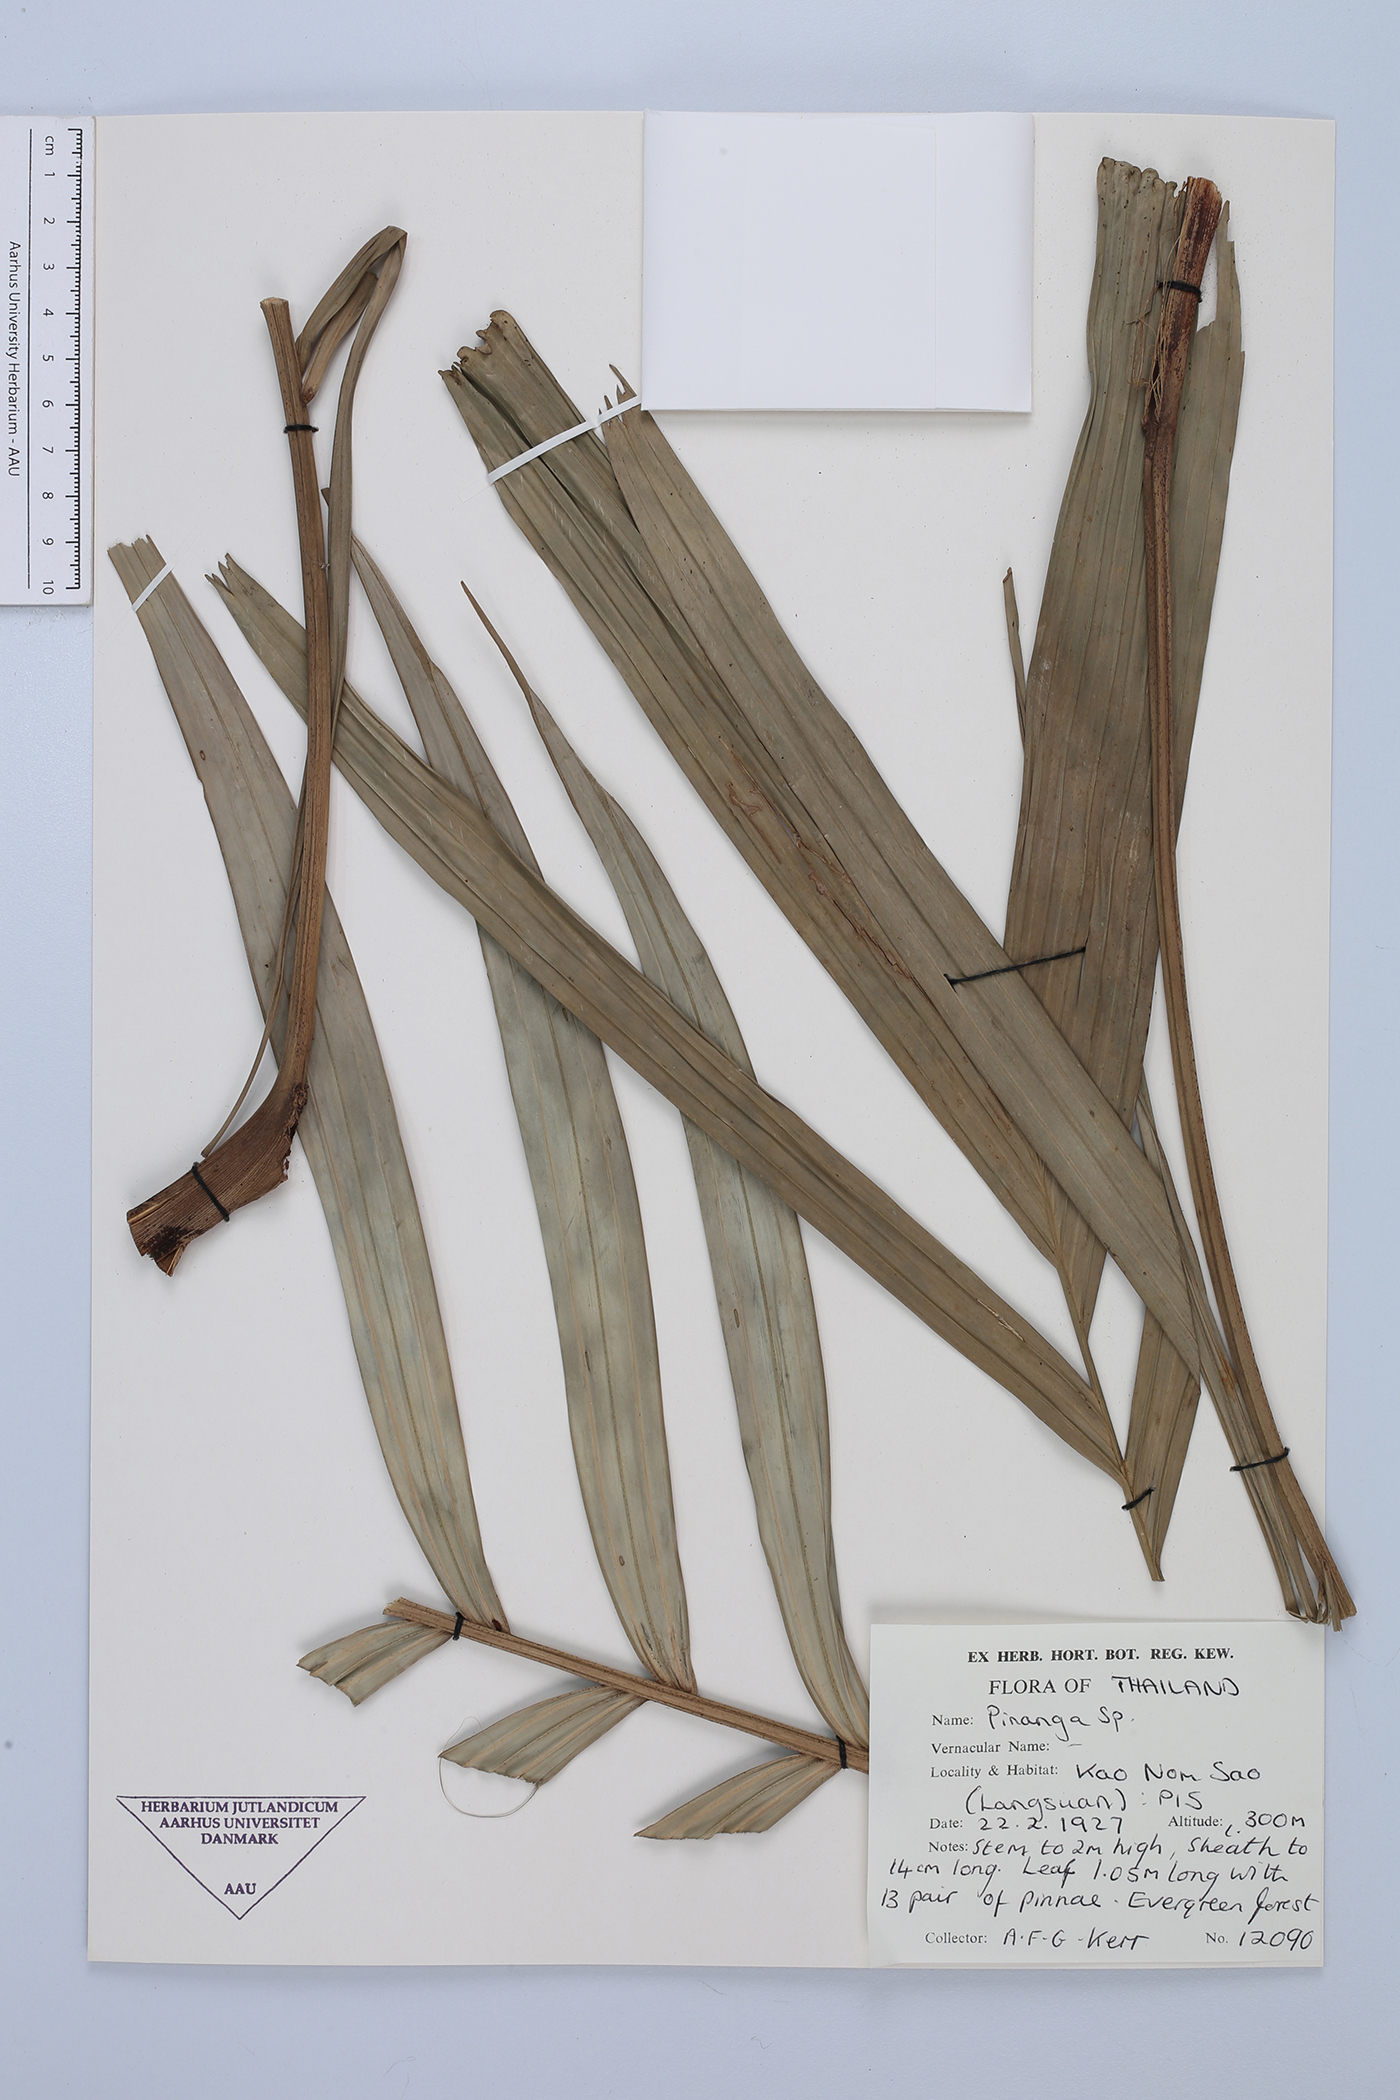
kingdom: Plantae
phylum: Tracheophyta
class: Liliopsida
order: Arecales
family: Arecaceae
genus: Pinanga
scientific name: Pinanga
